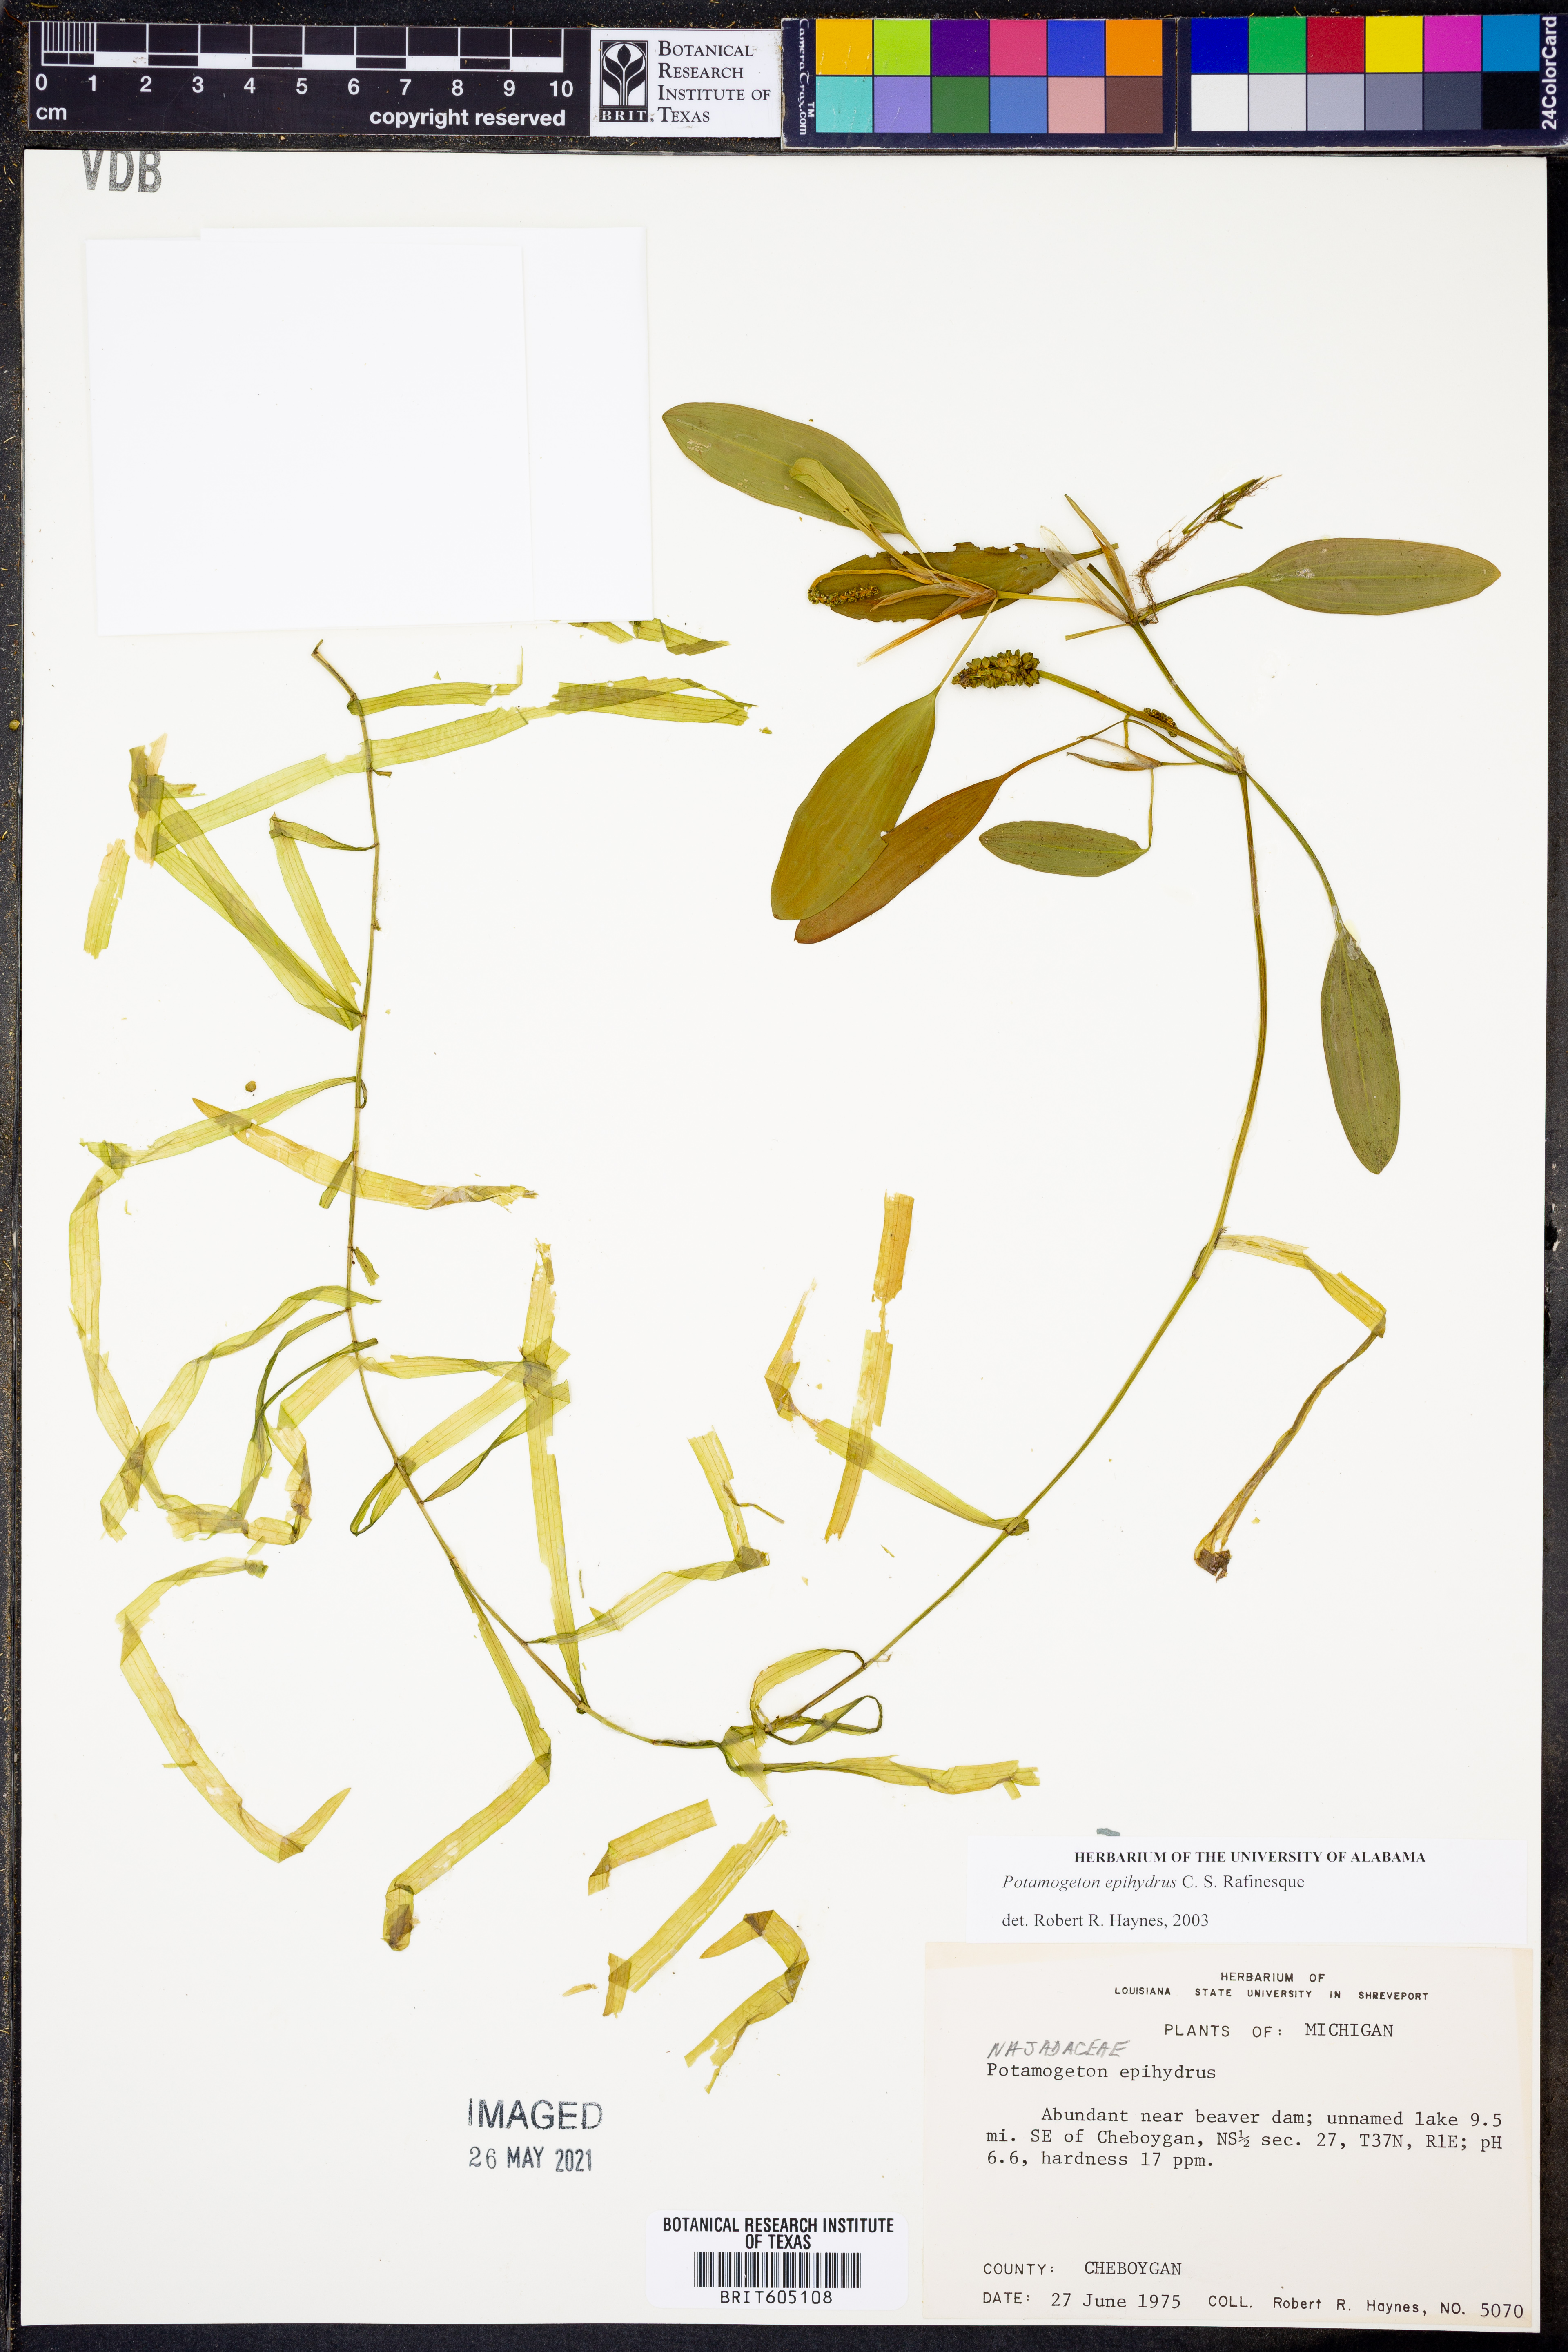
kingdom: Plantae
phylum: Tracheophyta
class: Liliopsida
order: Alismatales
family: Potamogetonaceae
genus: Potamogeton
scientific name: Potamogeton epihydrus
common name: American pondweed
